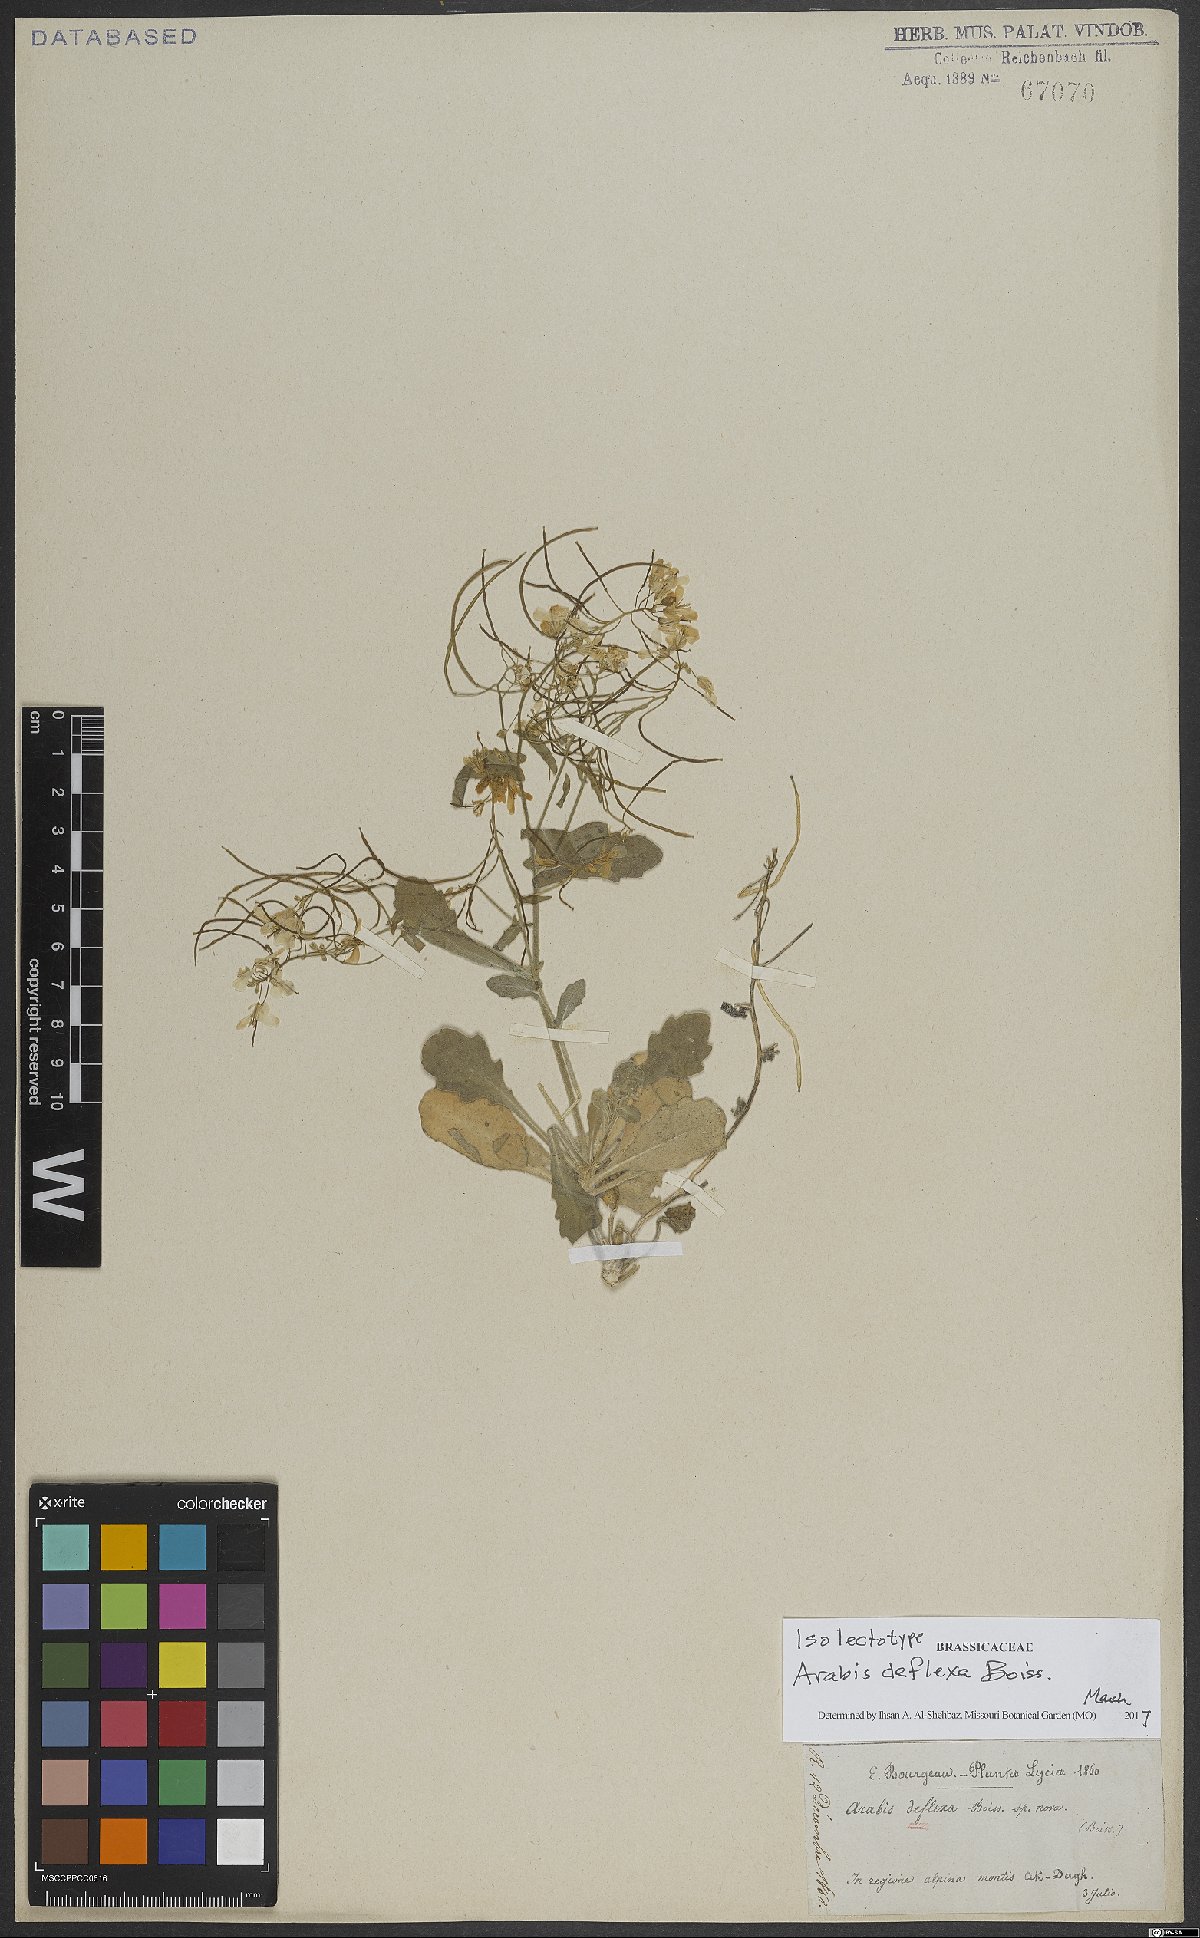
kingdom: Plantae
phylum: Tracheophyta
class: Magnoliopsida
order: Brassicales
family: Brassicaceae
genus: Arabis
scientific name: Arabis deflexa
